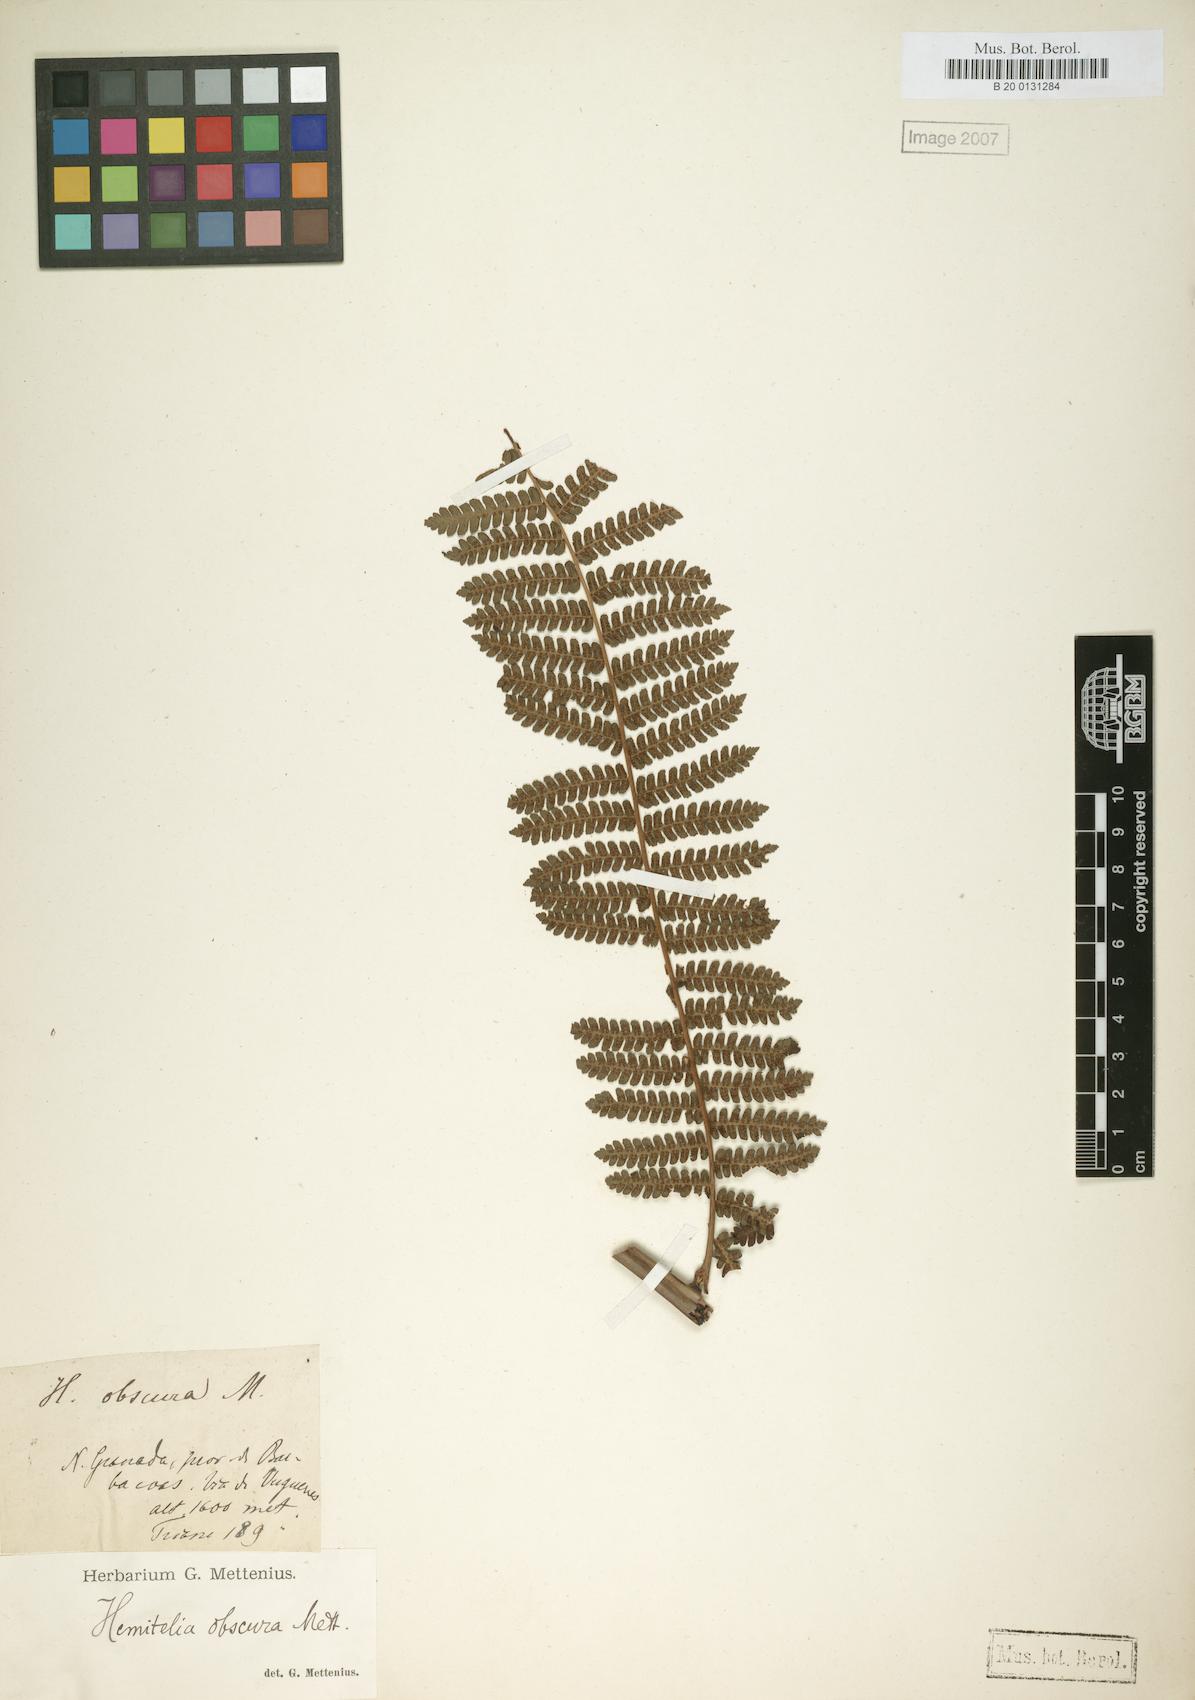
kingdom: Plantae
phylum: Tracheophyta
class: Polypodiopsida
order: Cyatheales
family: Cyatheaceae
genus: Cyathea
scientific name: Cyathea multiflora
